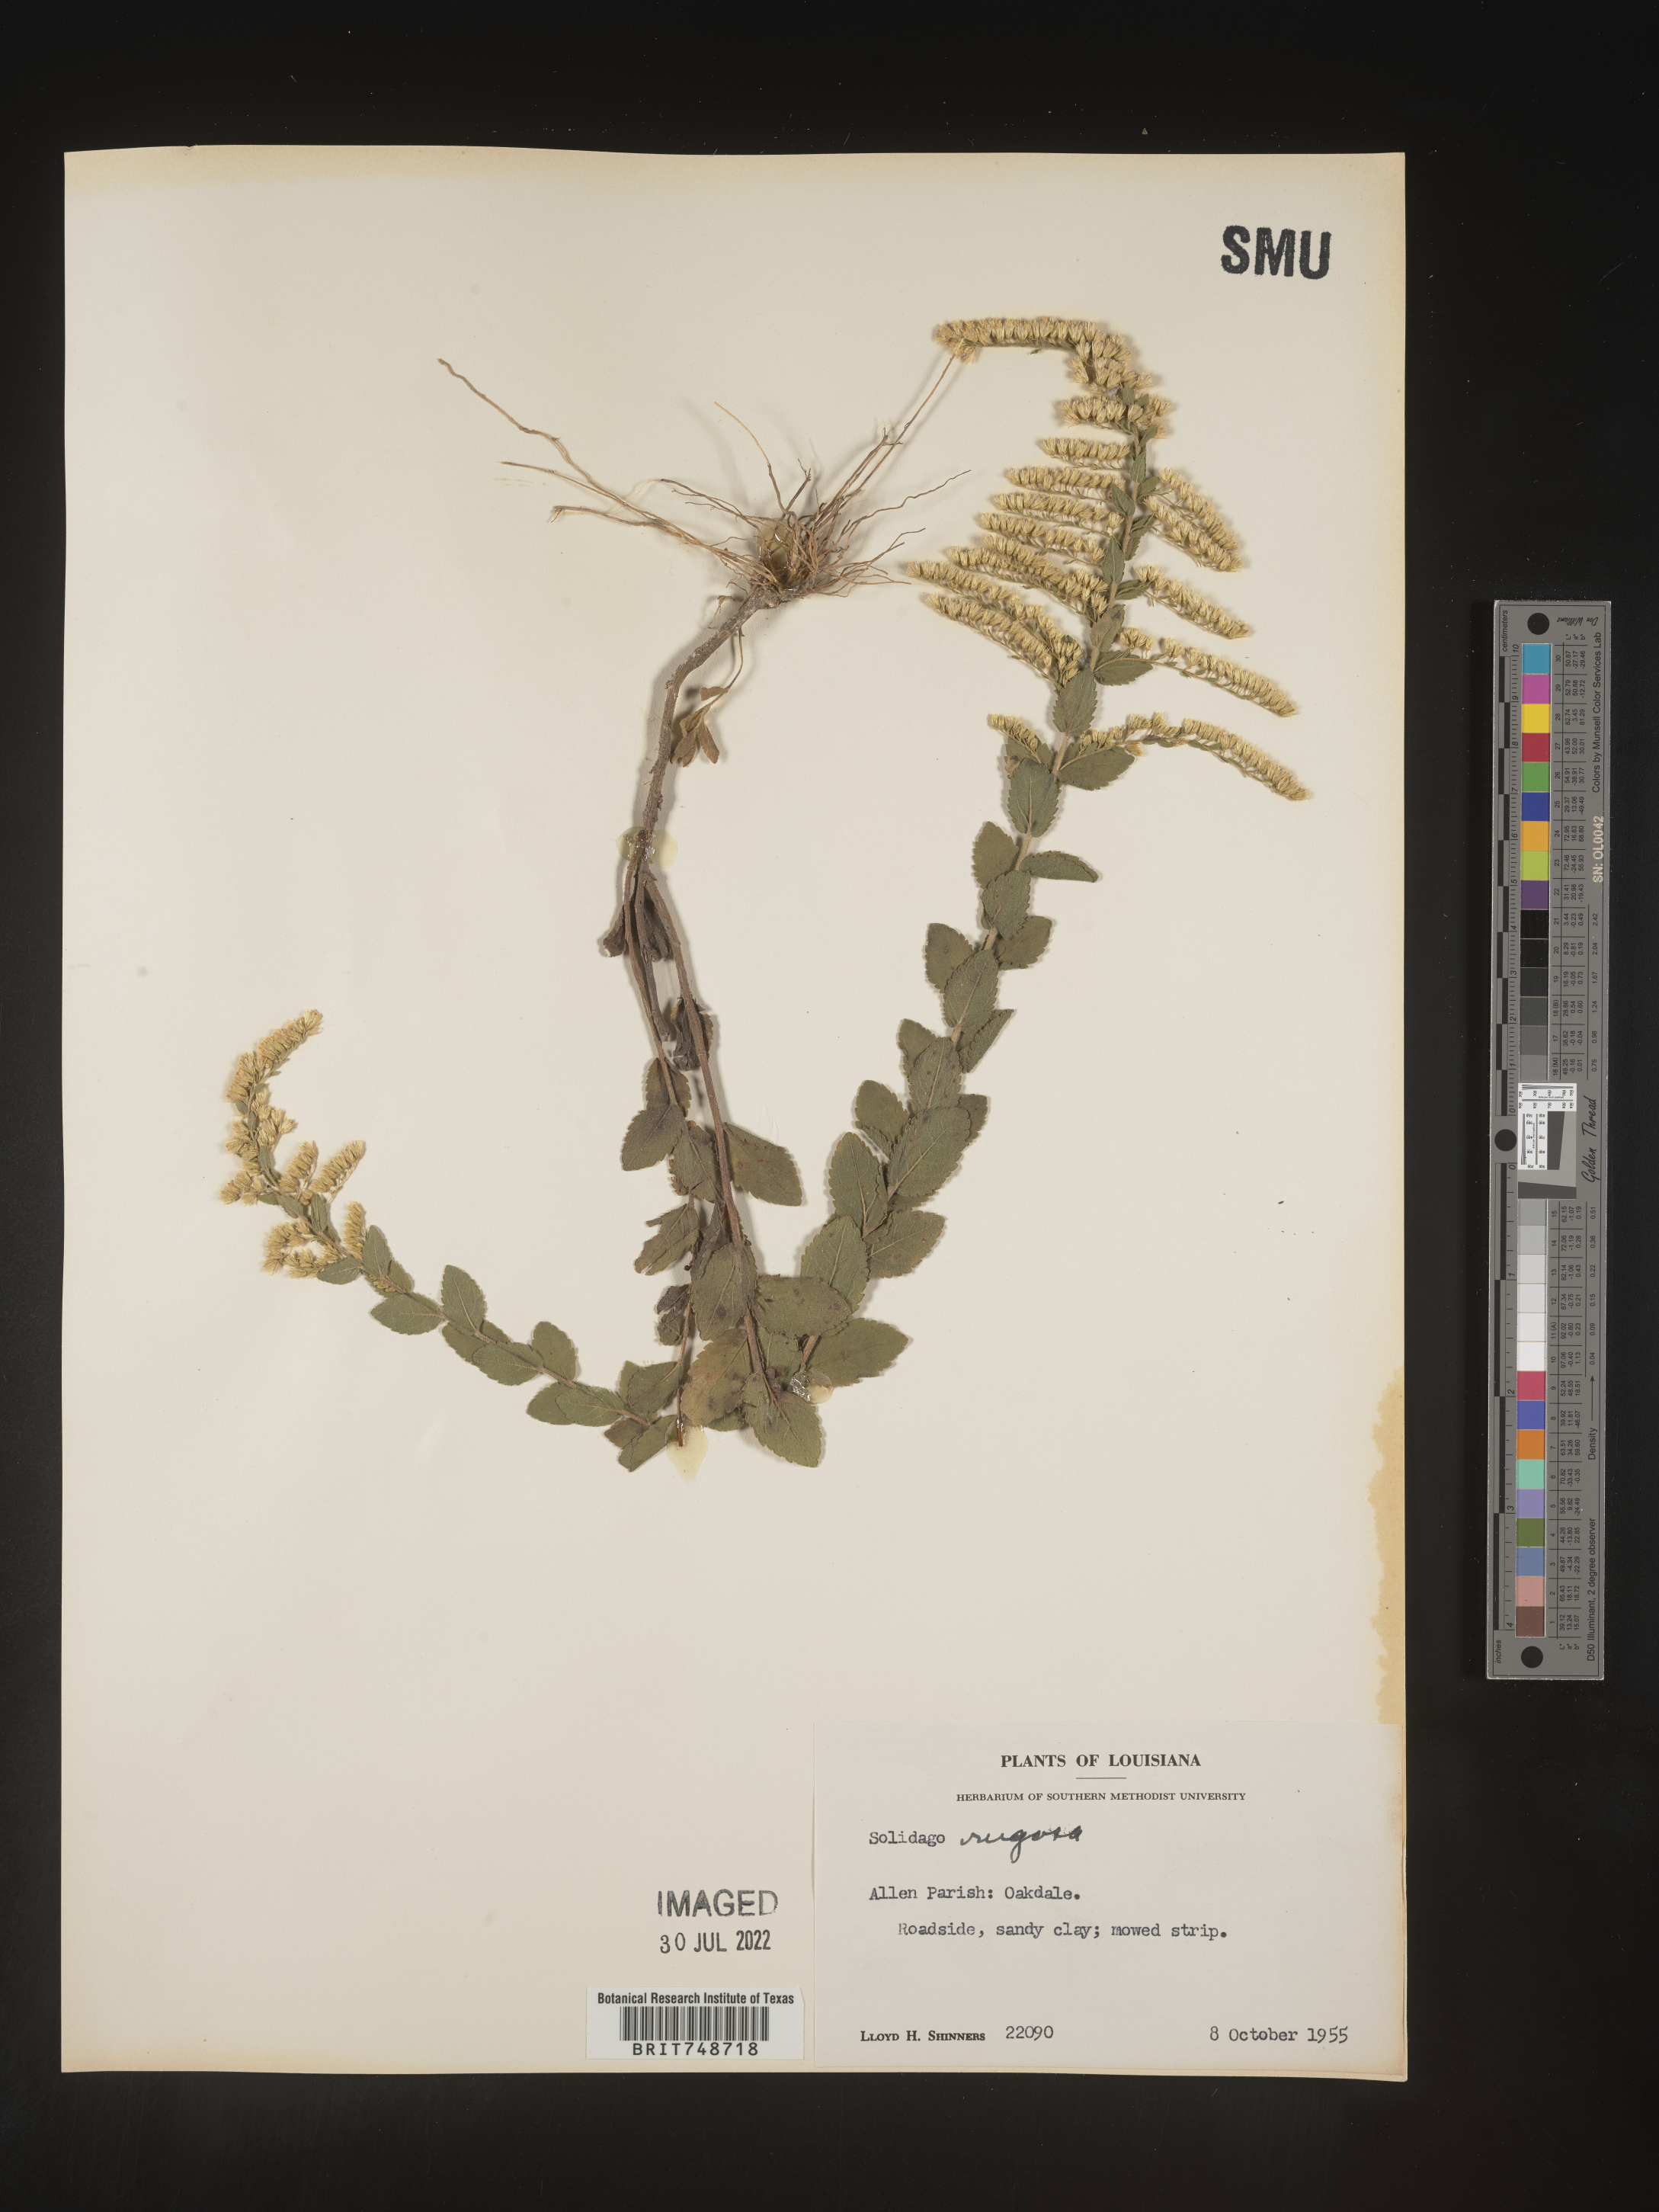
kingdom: Plantae
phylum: Tracheophyta
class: Magnoliopsida
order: Asterales
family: Asteraceae
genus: Solidago
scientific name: Solidago rugosa
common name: Rough-stemmed goldenrod
